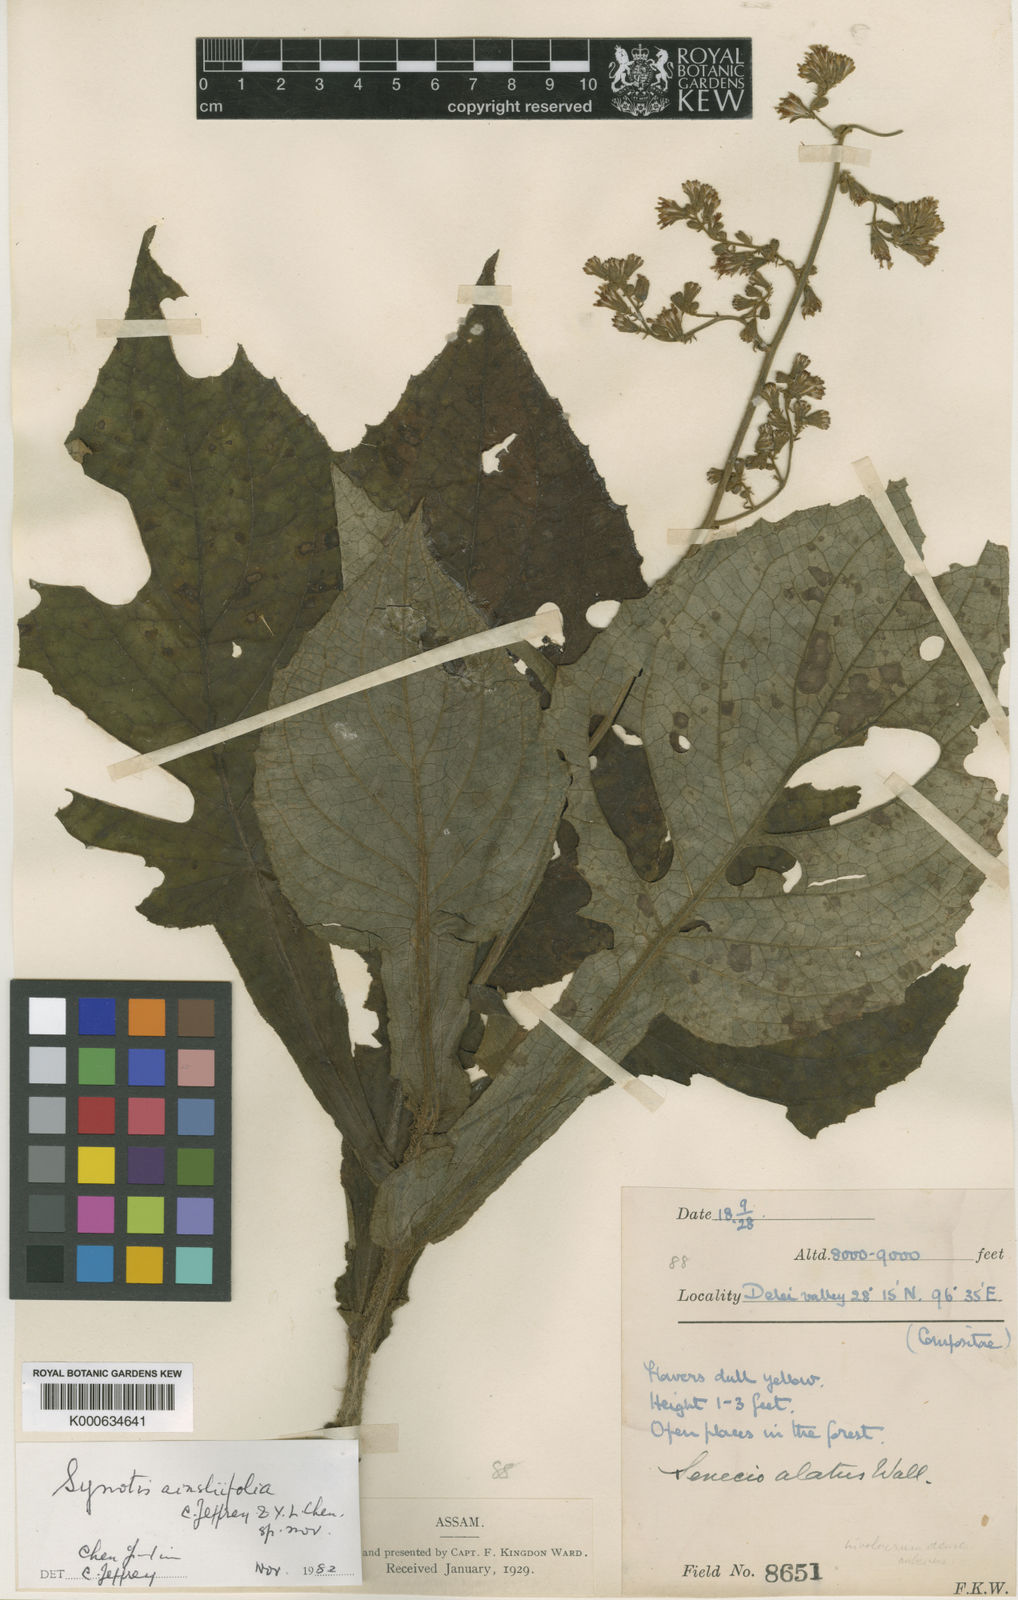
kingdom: Plantae
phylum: Tracheophyta
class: Magnoliopsida
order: Asterales
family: Asteraceae
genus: Synotis
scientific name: Synotis ainsliaeifolia
